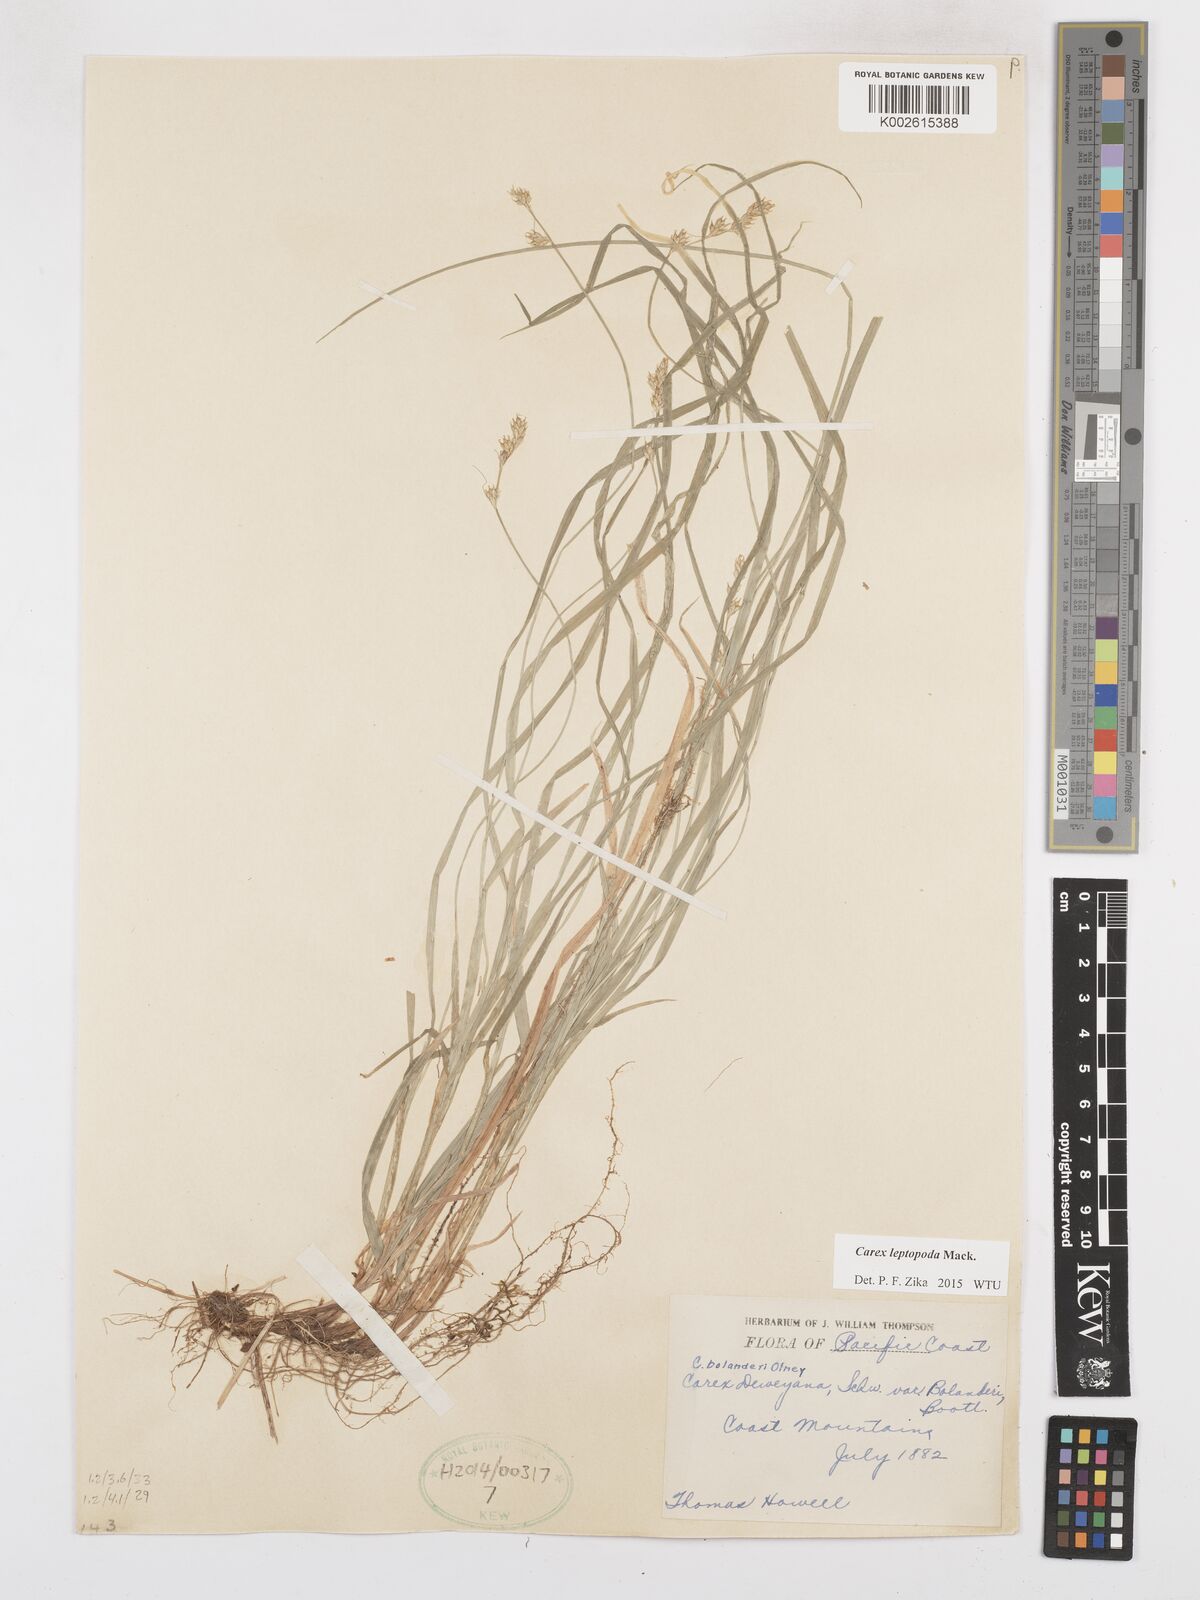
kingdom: Plantae
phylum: Tracheophyta
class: Liliopsida
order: Poales
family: Cyperaceae
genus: Carex
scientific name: Carex leptopoda
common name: Short-scale sedge
